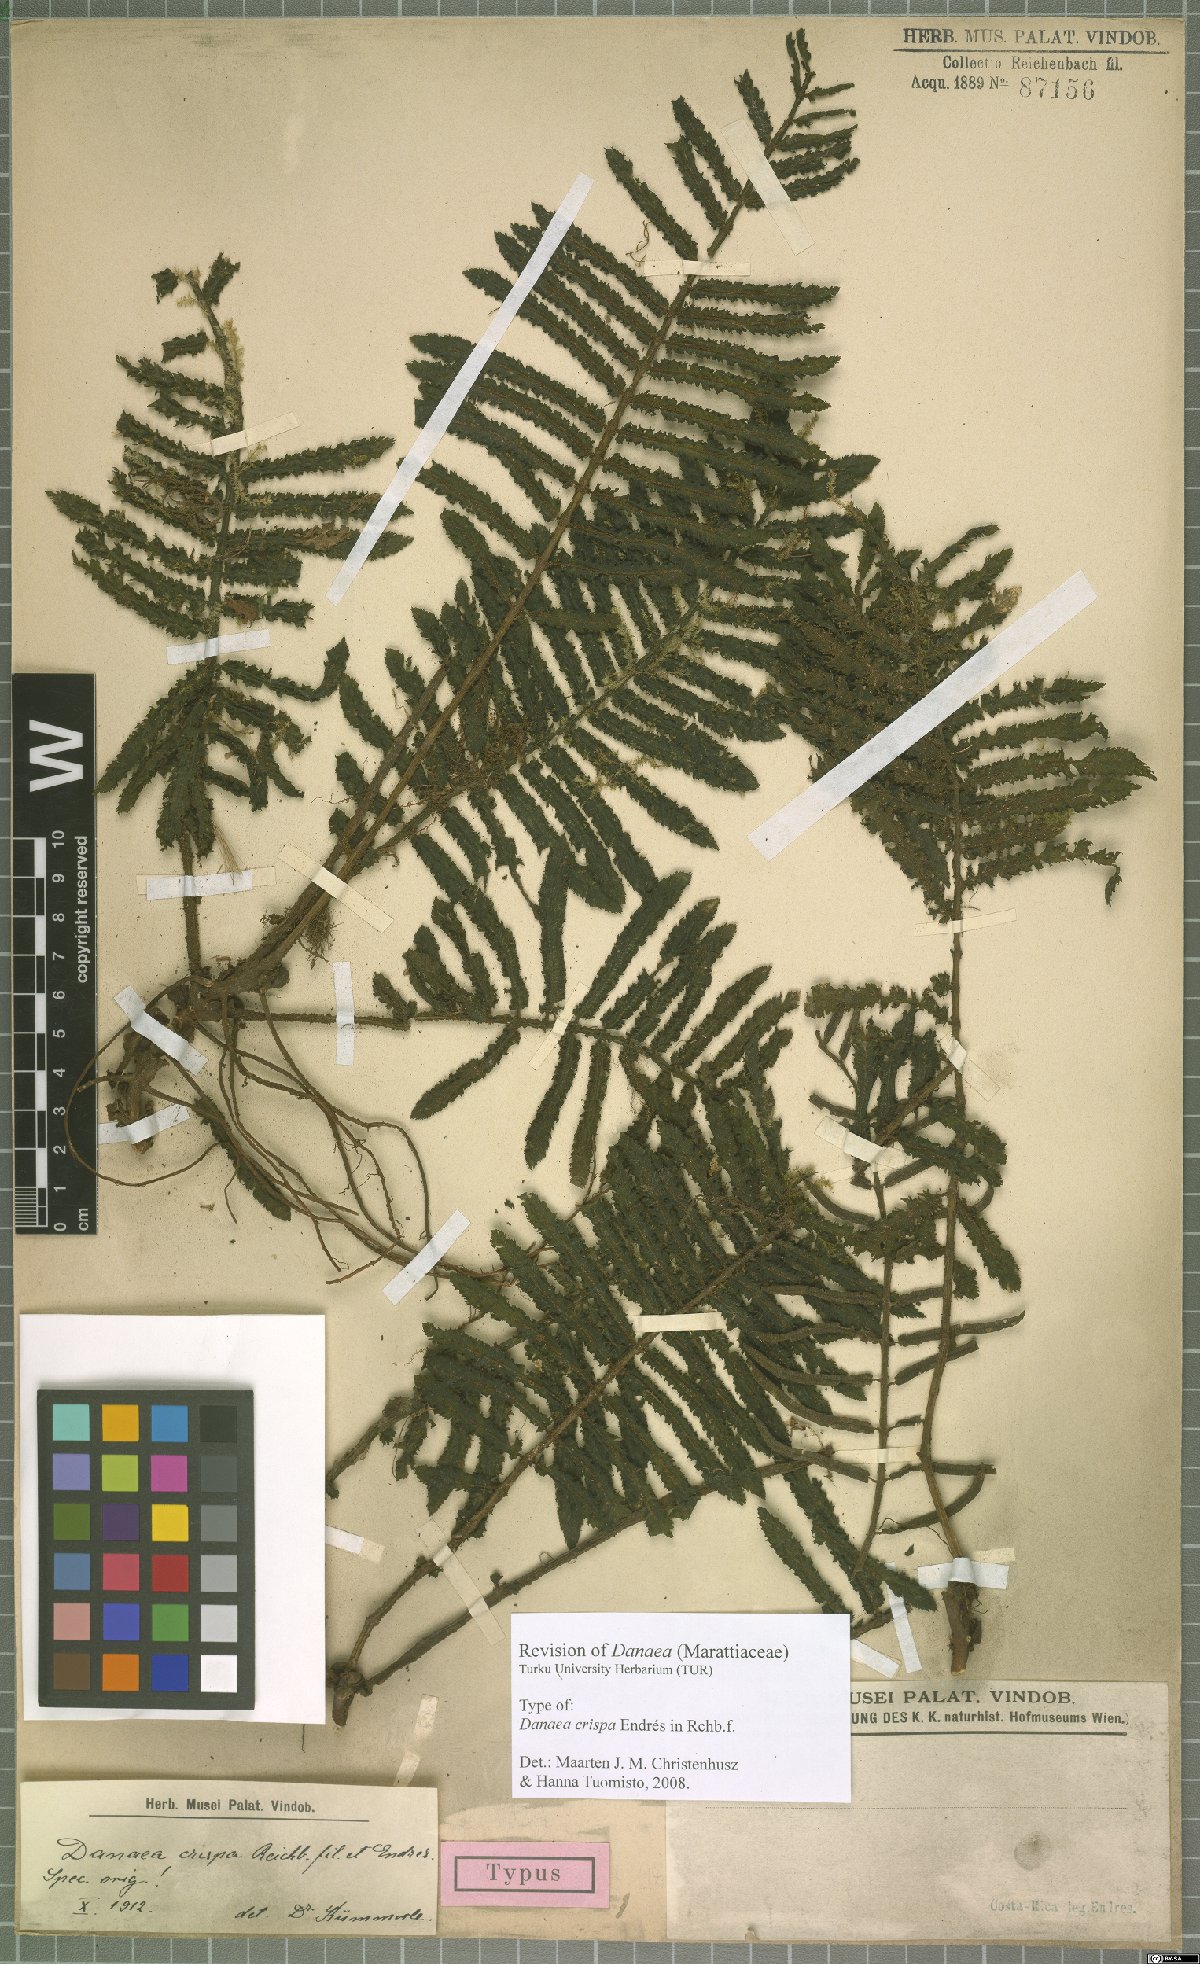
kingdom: Plantae
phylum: Tracheophyta
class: Polypodiopsida
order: Marattiales
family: Marattiaceae
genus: Danaea
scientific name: Danaea crispa
